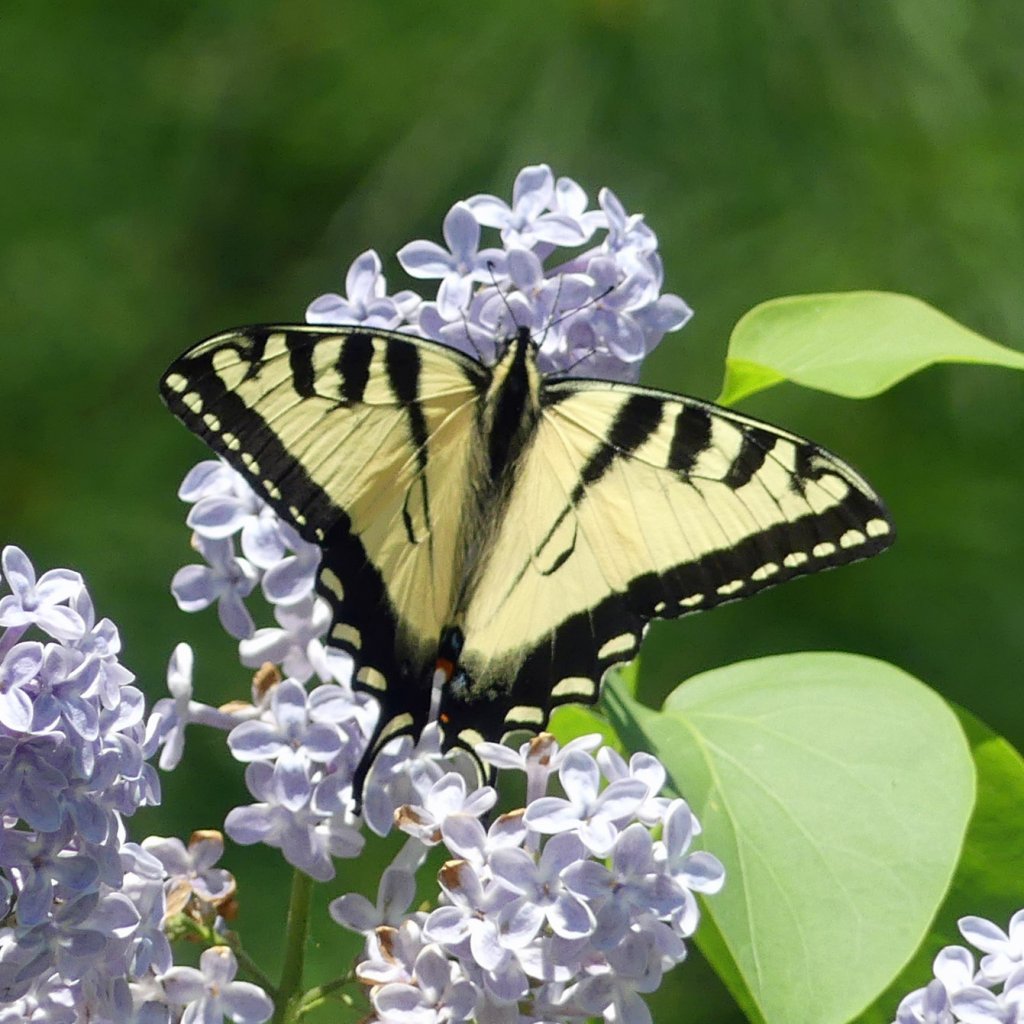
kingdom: Animalia
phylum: Arthropoda
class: Insecta
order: Lepidoptera
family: Papilionidae
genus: Pterourus
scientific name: Pterourus glaucus
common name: Eastern Tiger Swallowtail
